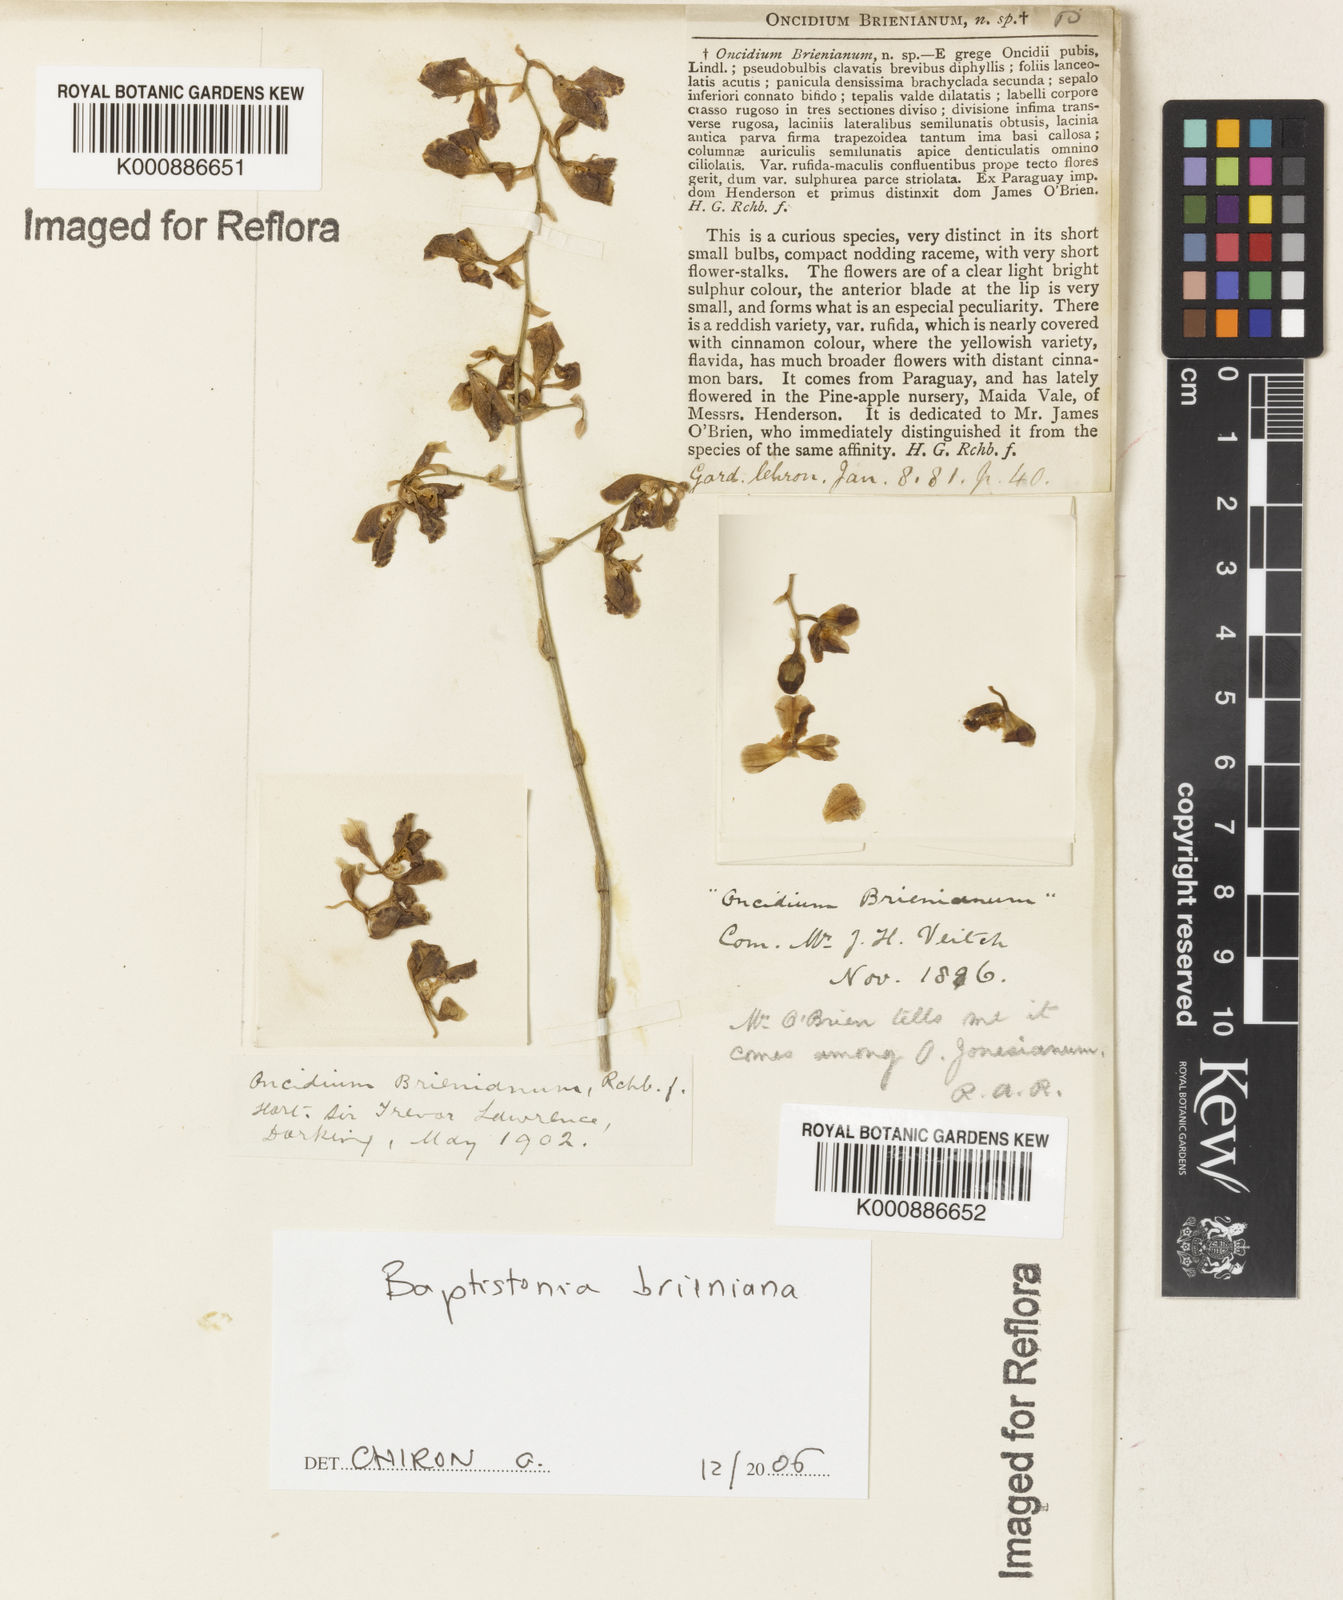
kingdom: Plantae
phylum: Tracheophyta
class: Liliopsida
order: Asparagales
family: Orchidaceae
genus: Gomesa
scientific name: Gomesa brieniana
